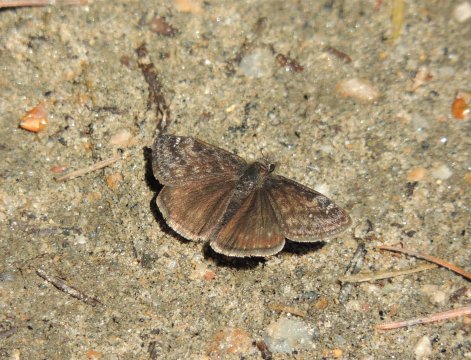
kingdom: Animalia
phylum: Arthropoda
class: Insecta
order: Lepidoptera
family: Hesperiidae
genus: Gesta
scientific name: Gesta
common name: Persius Duskywing
